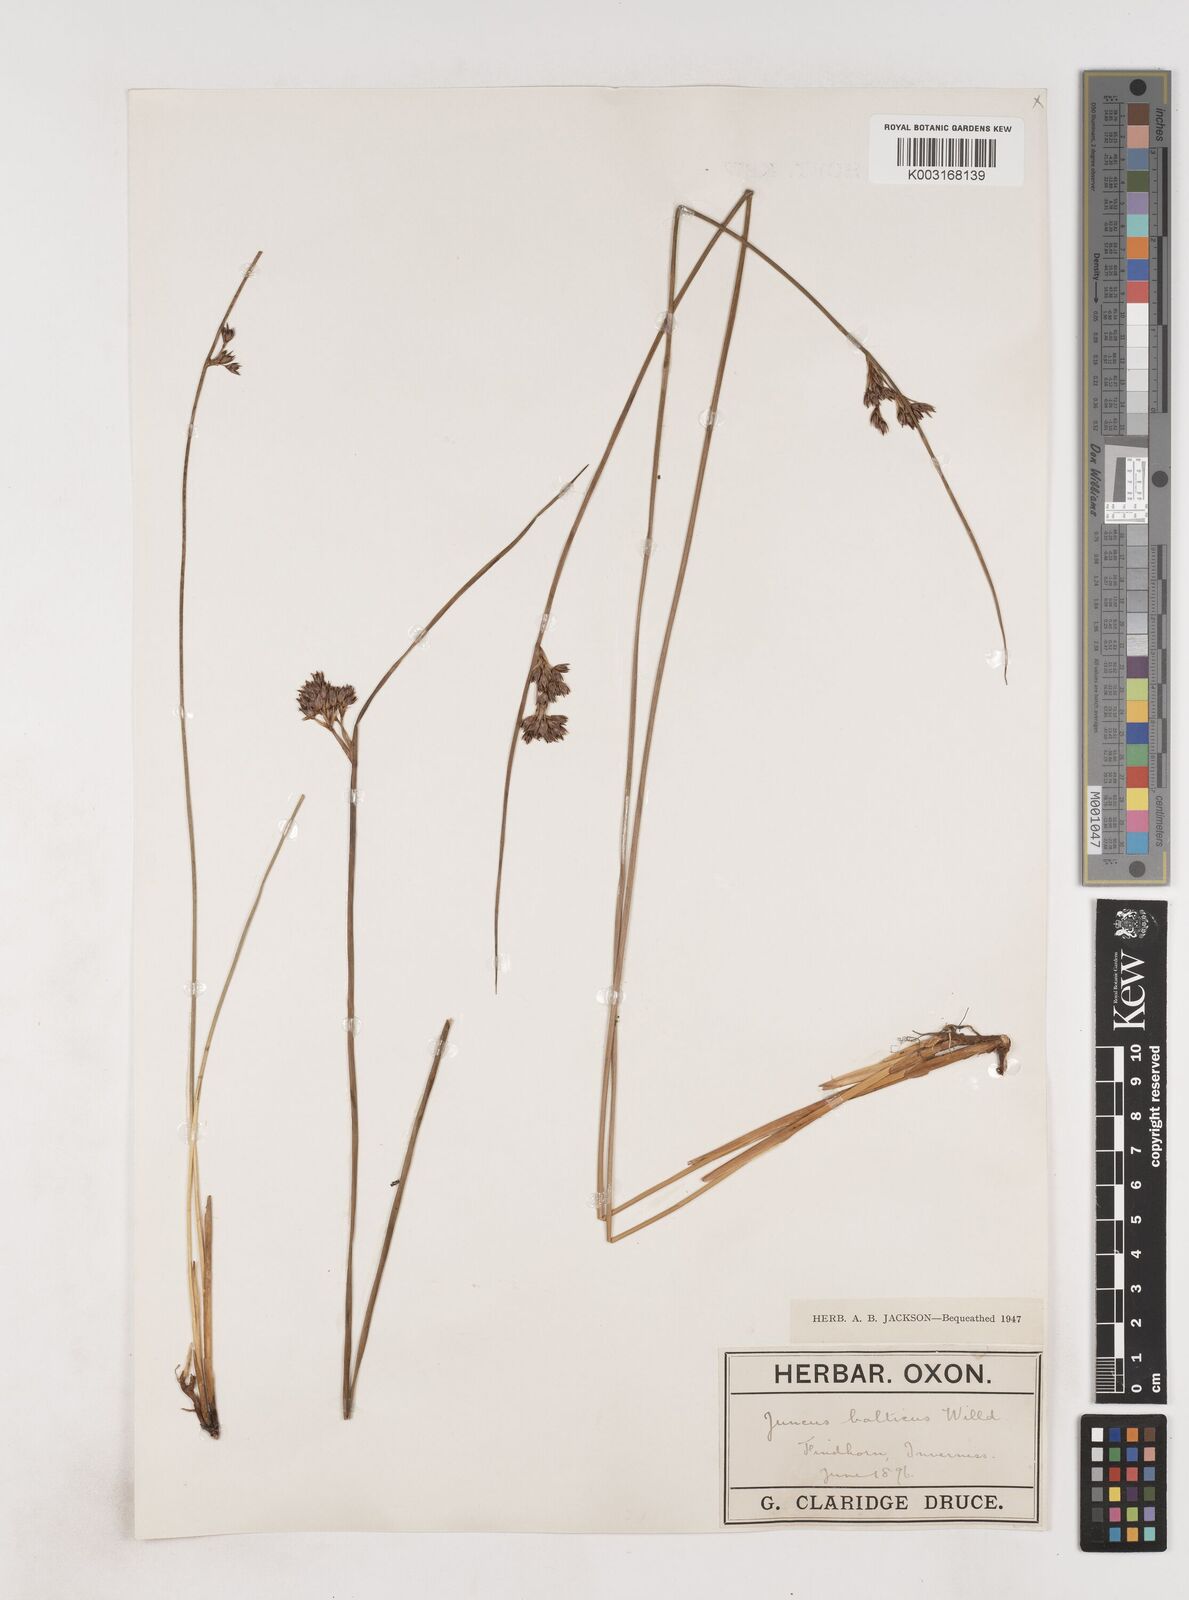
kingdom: Plantae
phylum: Tracheophyta
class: Liliopsida
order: Poales
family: Juncaceae
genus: Juncus
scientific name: Juncus balticus
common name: Baltic rush
